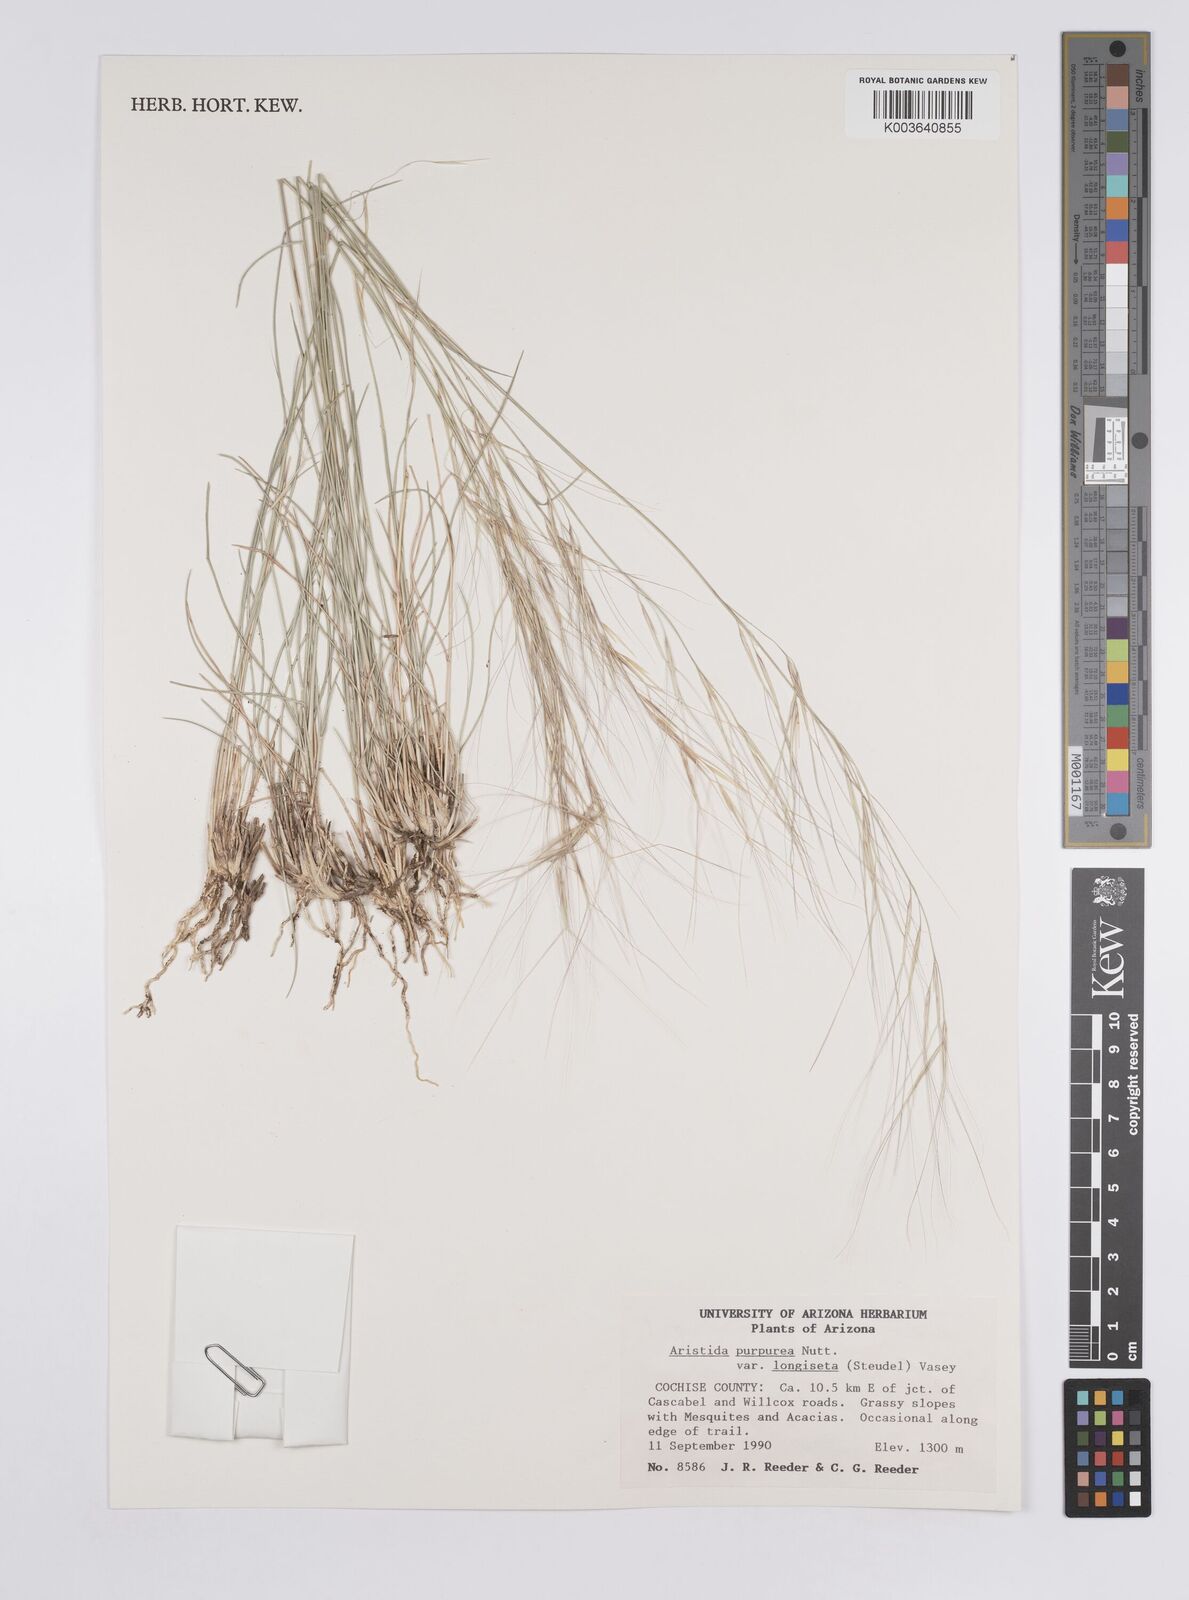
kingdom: Plantae
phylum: Tracheophyta
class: Liliopsida
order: Poales
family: Poaceae
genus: Aristida
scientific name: Aristida purpurea
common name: Purple threeawn
